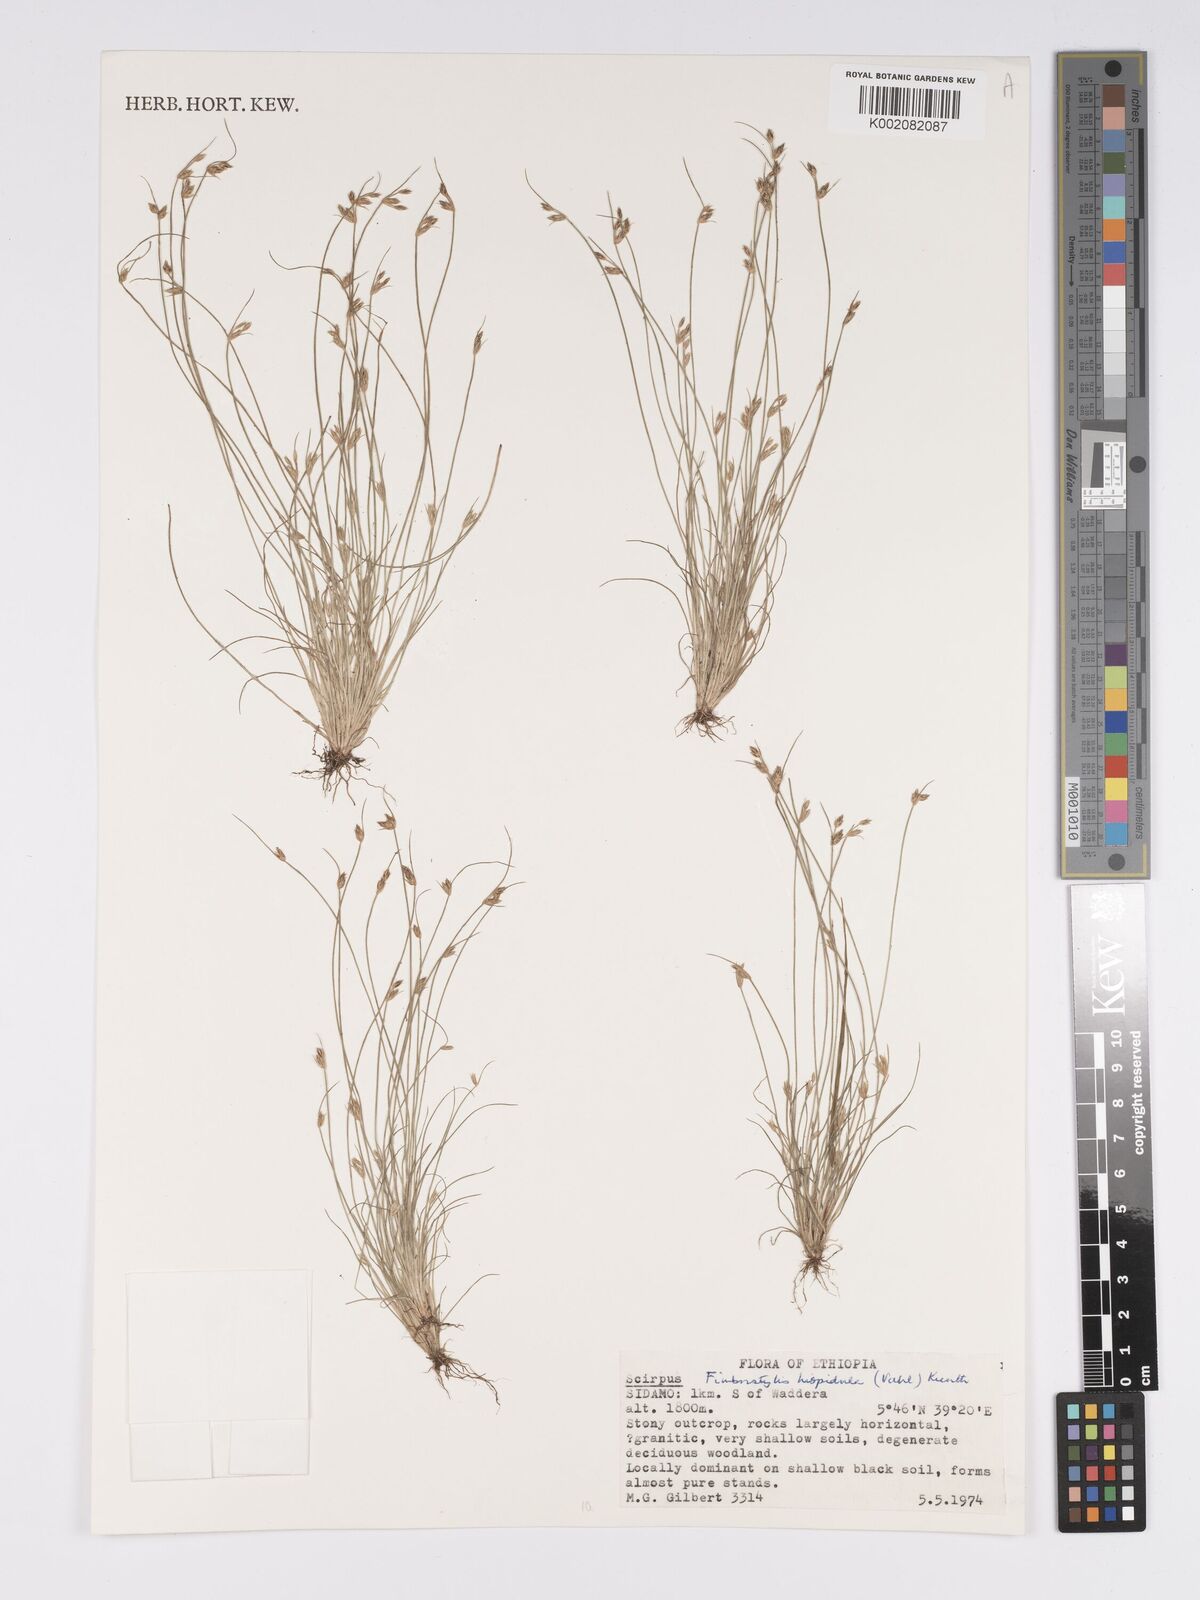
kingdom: Plantae
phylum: Tracheophyta
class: Liliopsida
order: Poales
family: Cyperaceae
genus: Bulbostylis
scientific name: Bulbostylis hispidula
